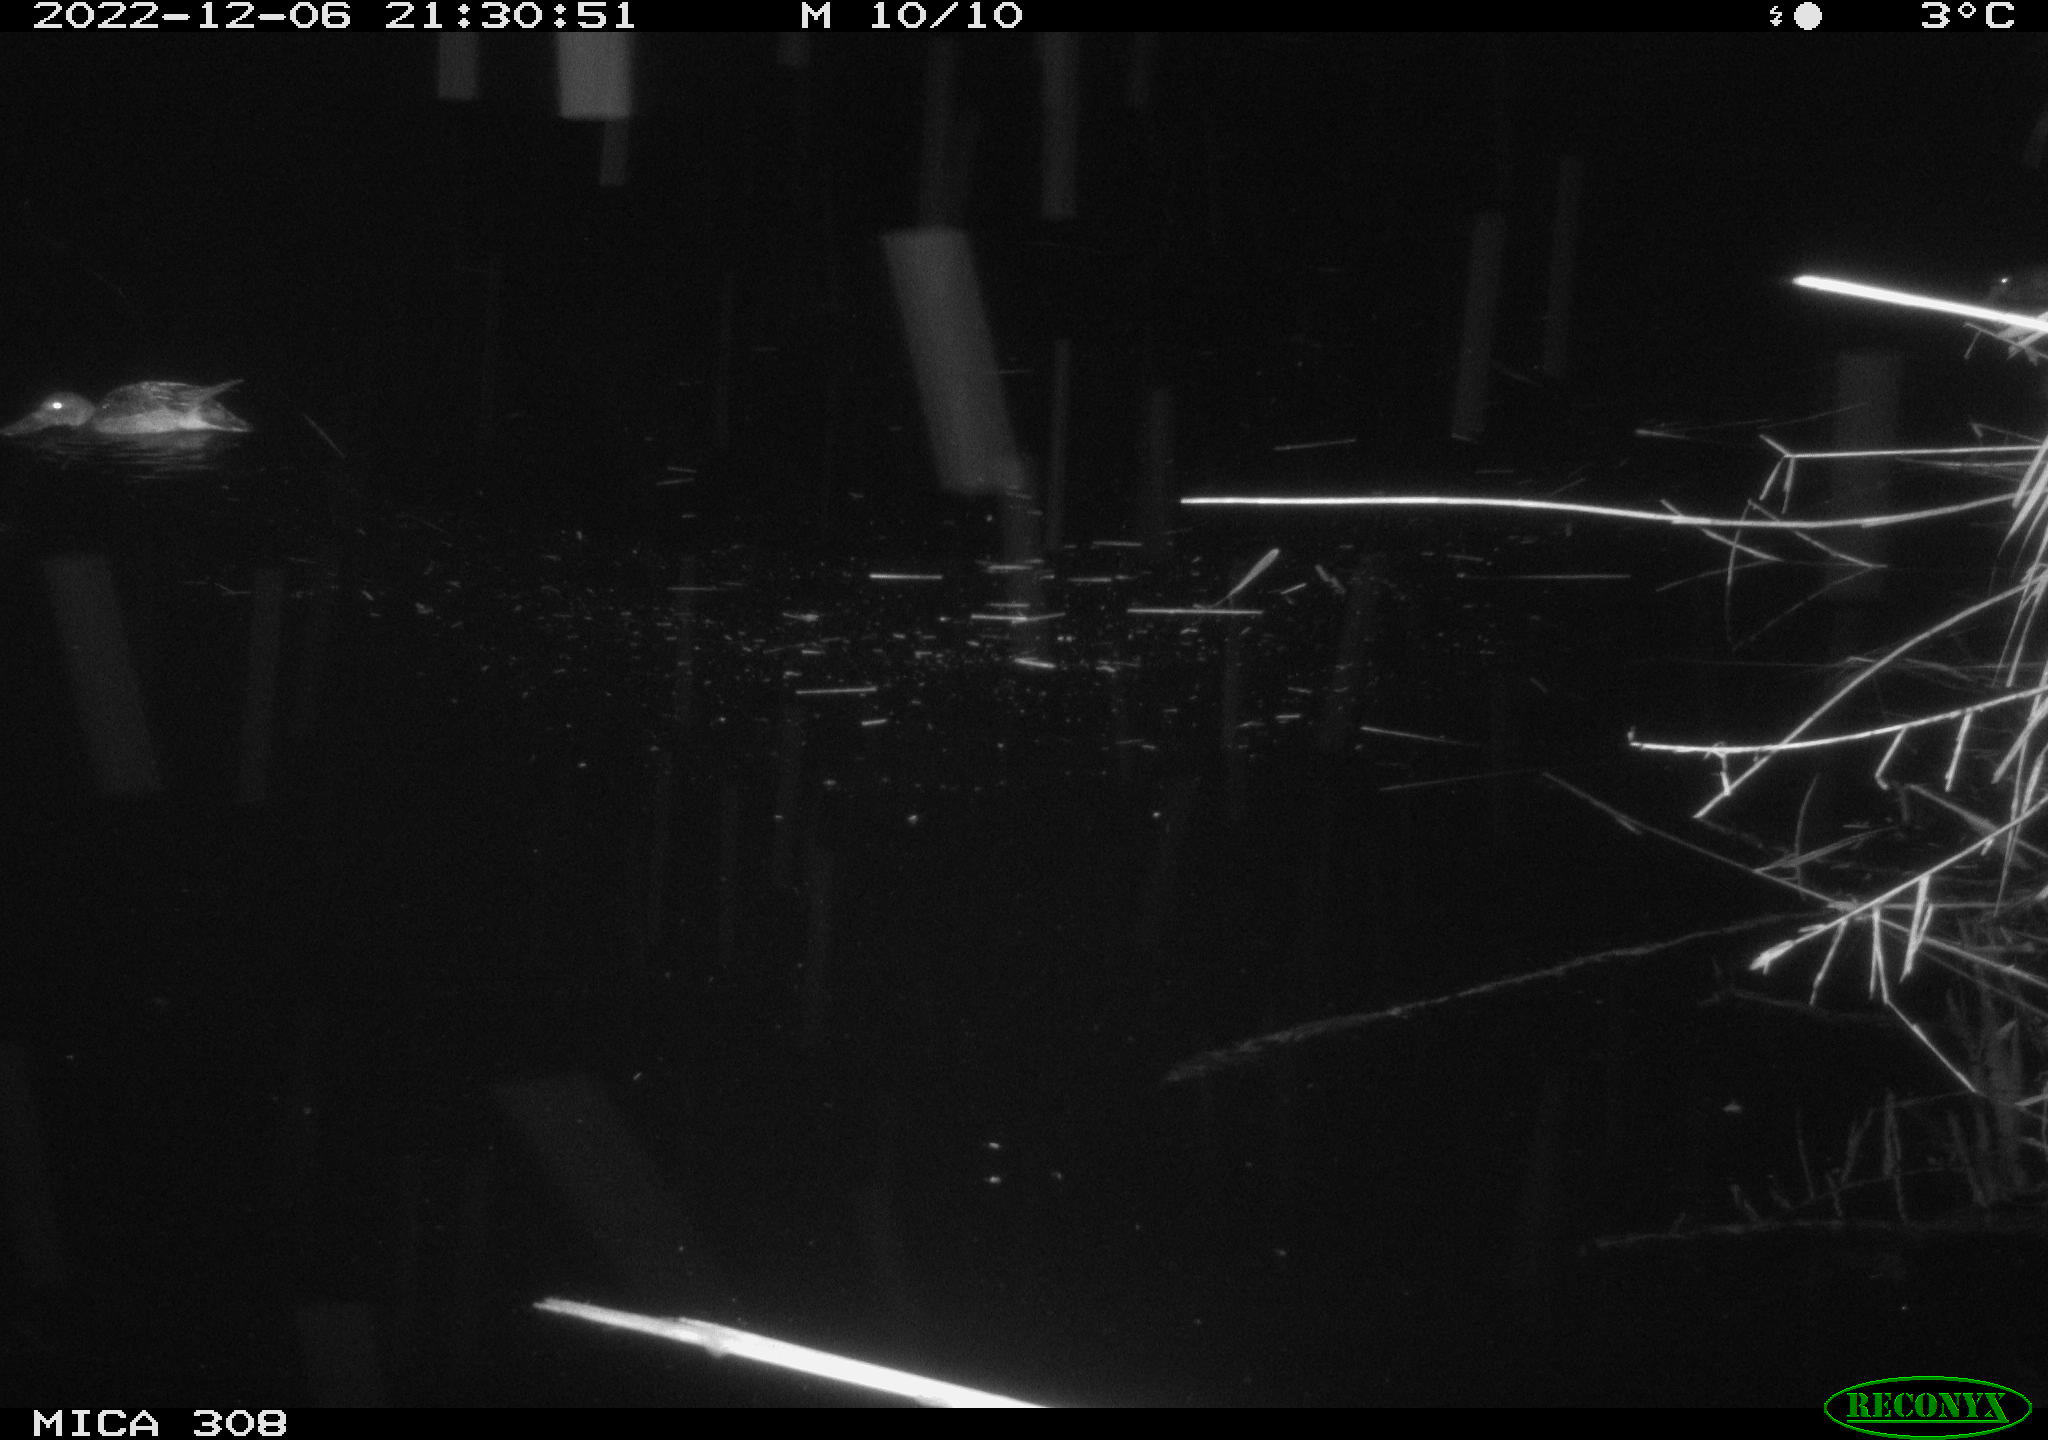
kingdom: Animalia
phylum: Chordata
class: Aves
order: Anseriformes
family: Anatidae
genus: Anas
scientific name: Anas
